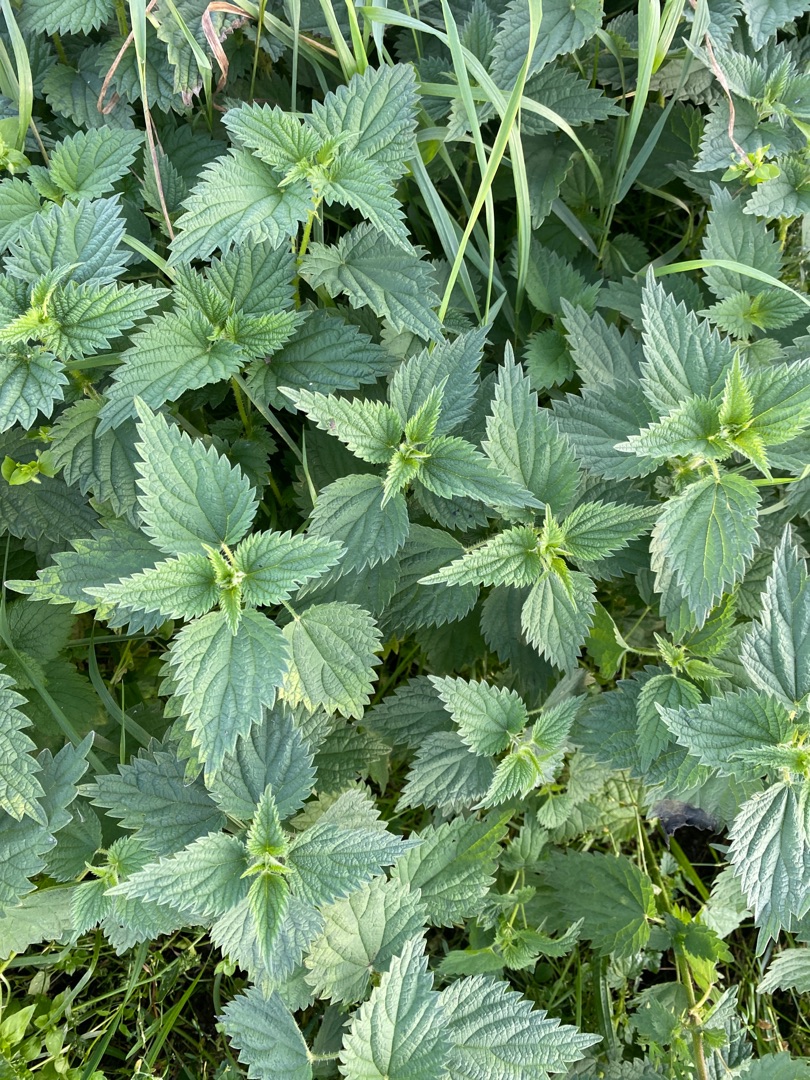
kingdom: Plantae
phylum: Tracheophyta
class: Magnoliopsida
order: Rosales
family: Urticaceae
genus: Urtica
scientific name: Urtica dioica
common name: Stor nælde
